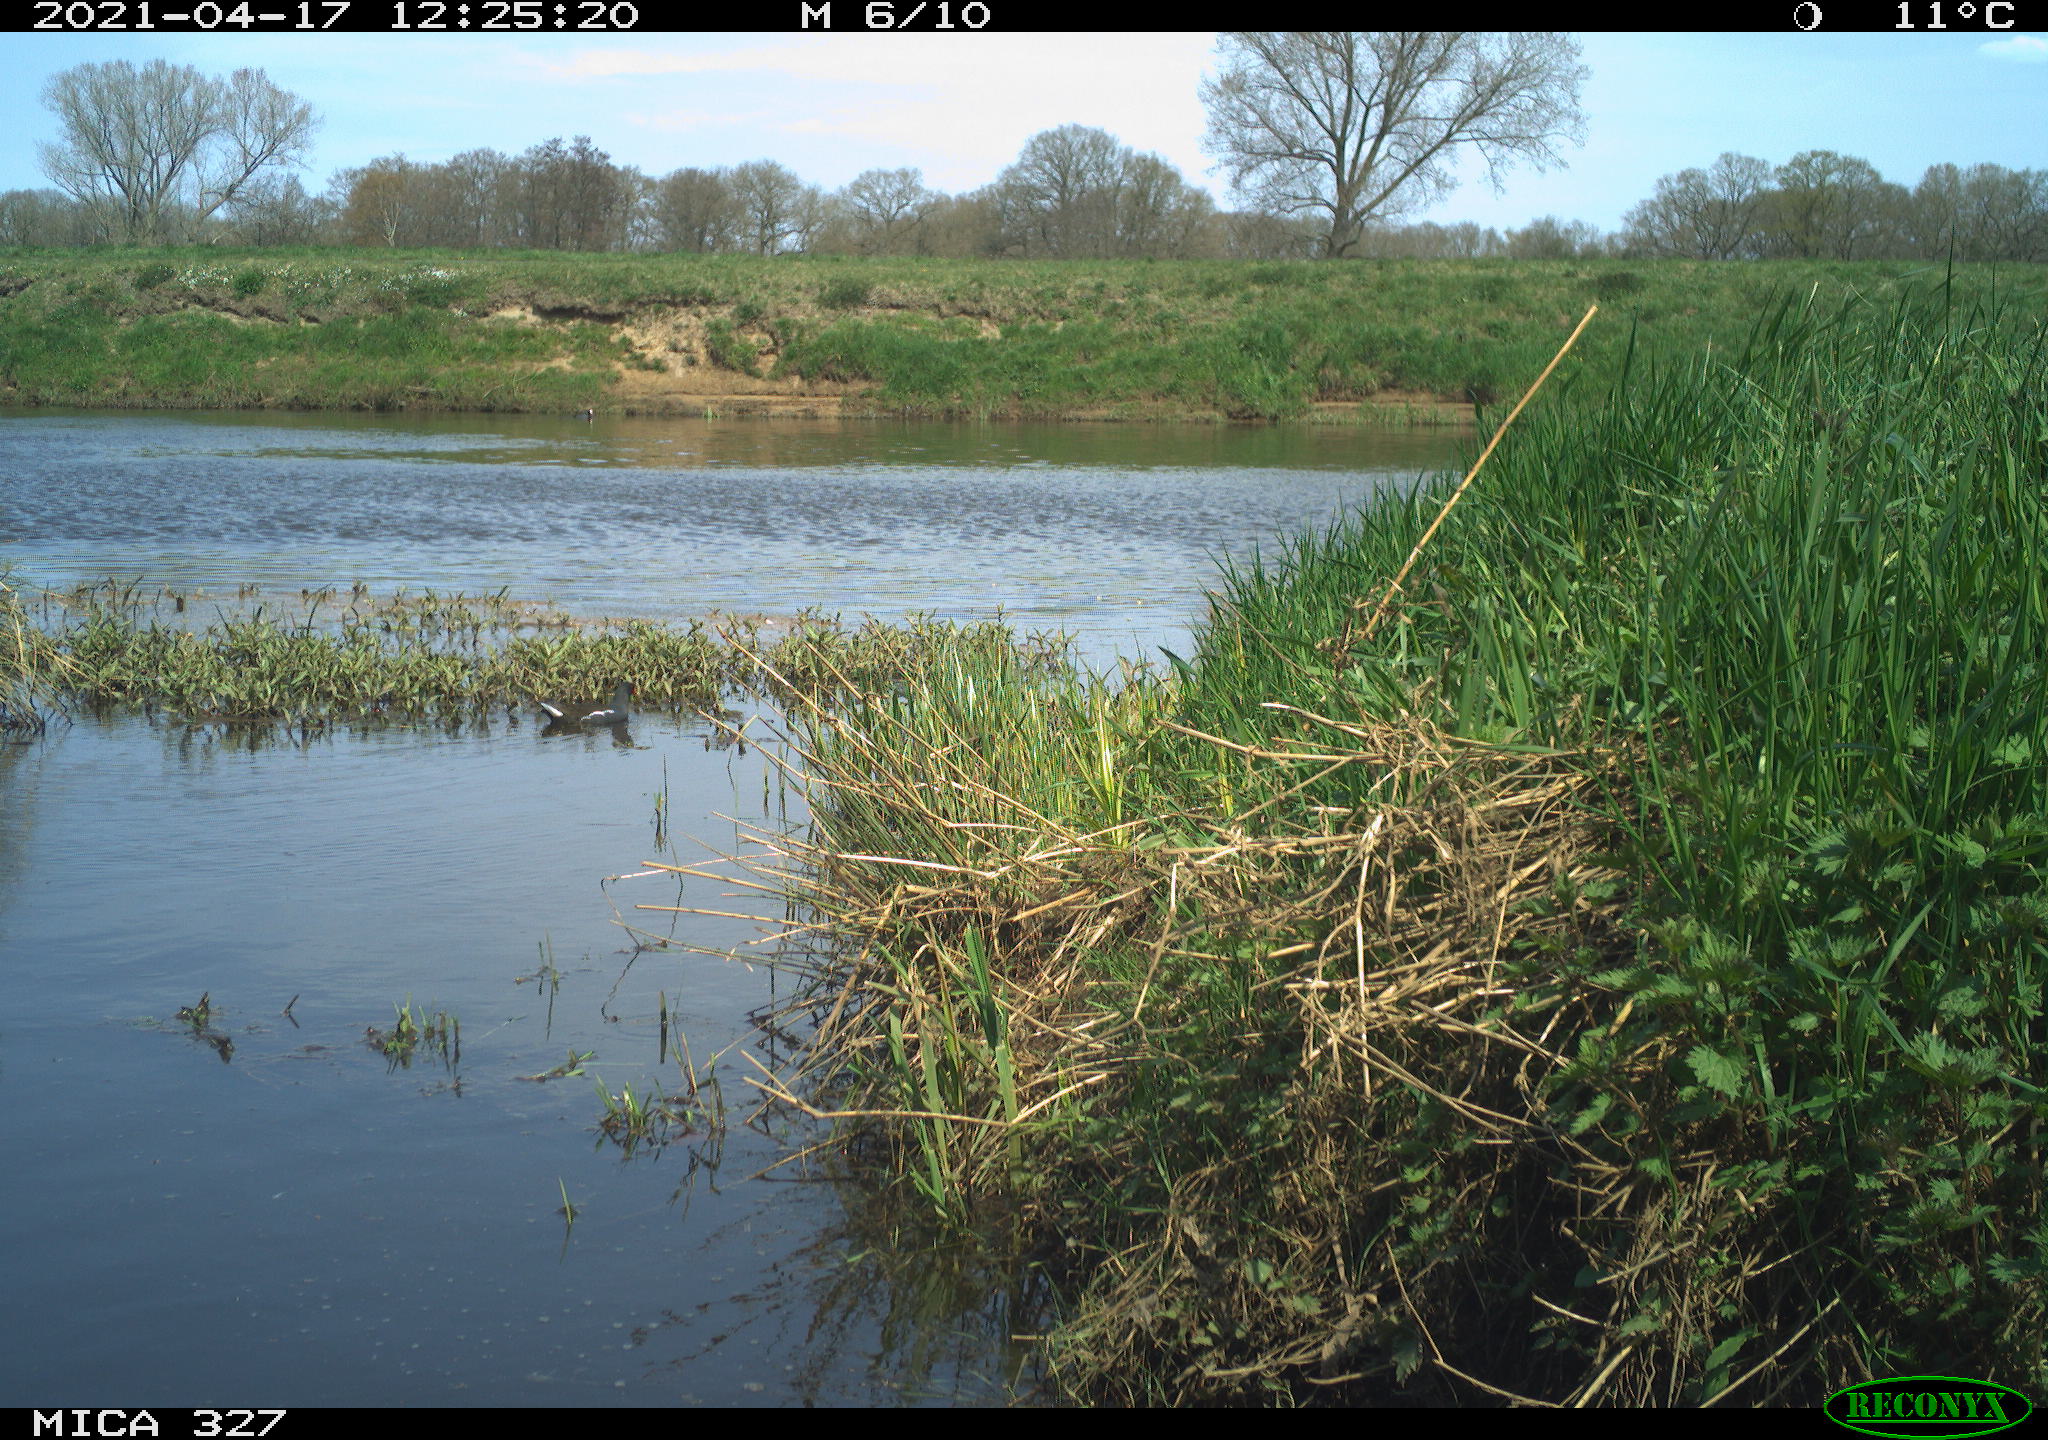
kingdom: Animalia
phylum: Chordata
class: Aves
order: Gruiformes
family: Rallidae
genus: Gallinula
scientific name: Gallinula chloropus
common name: Common moorhen
